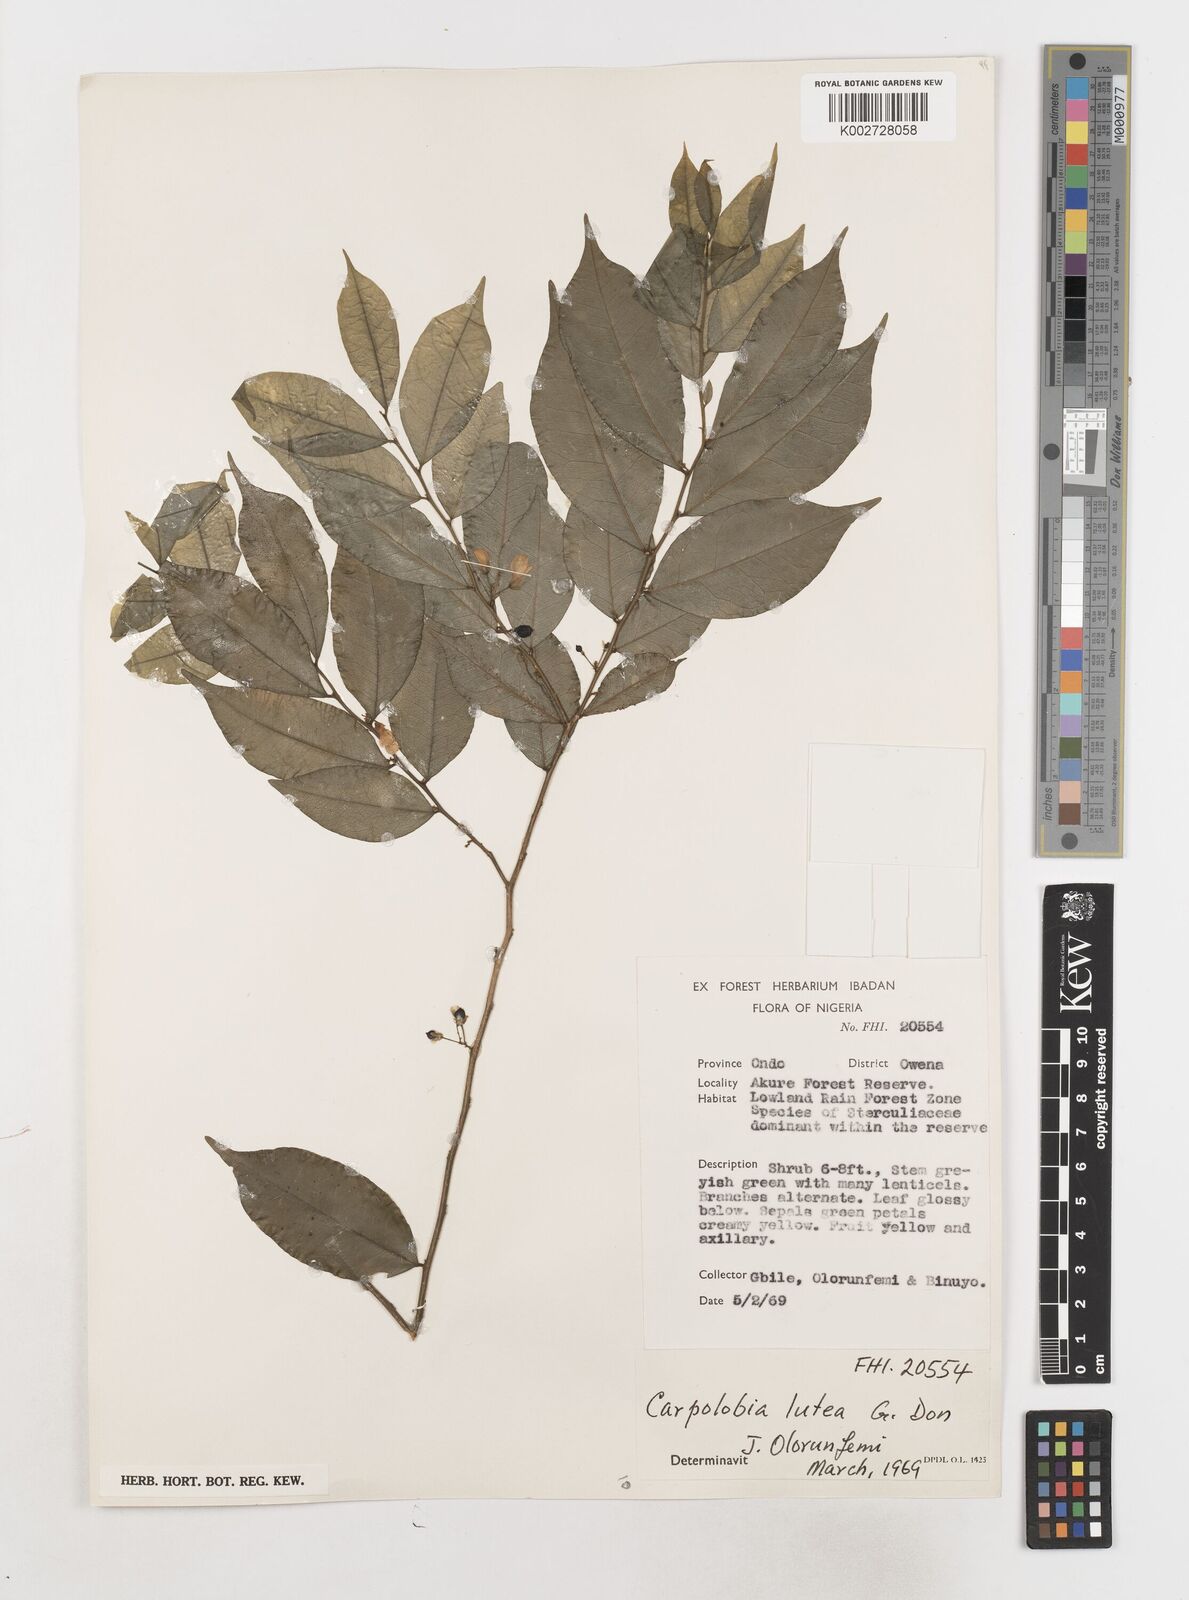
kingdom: Plantae
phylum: Tracheophyta
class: Magnoliopsida
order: Fabales
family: Polygalaceae
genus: Carpolobia
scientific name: Carpolobia lutea
